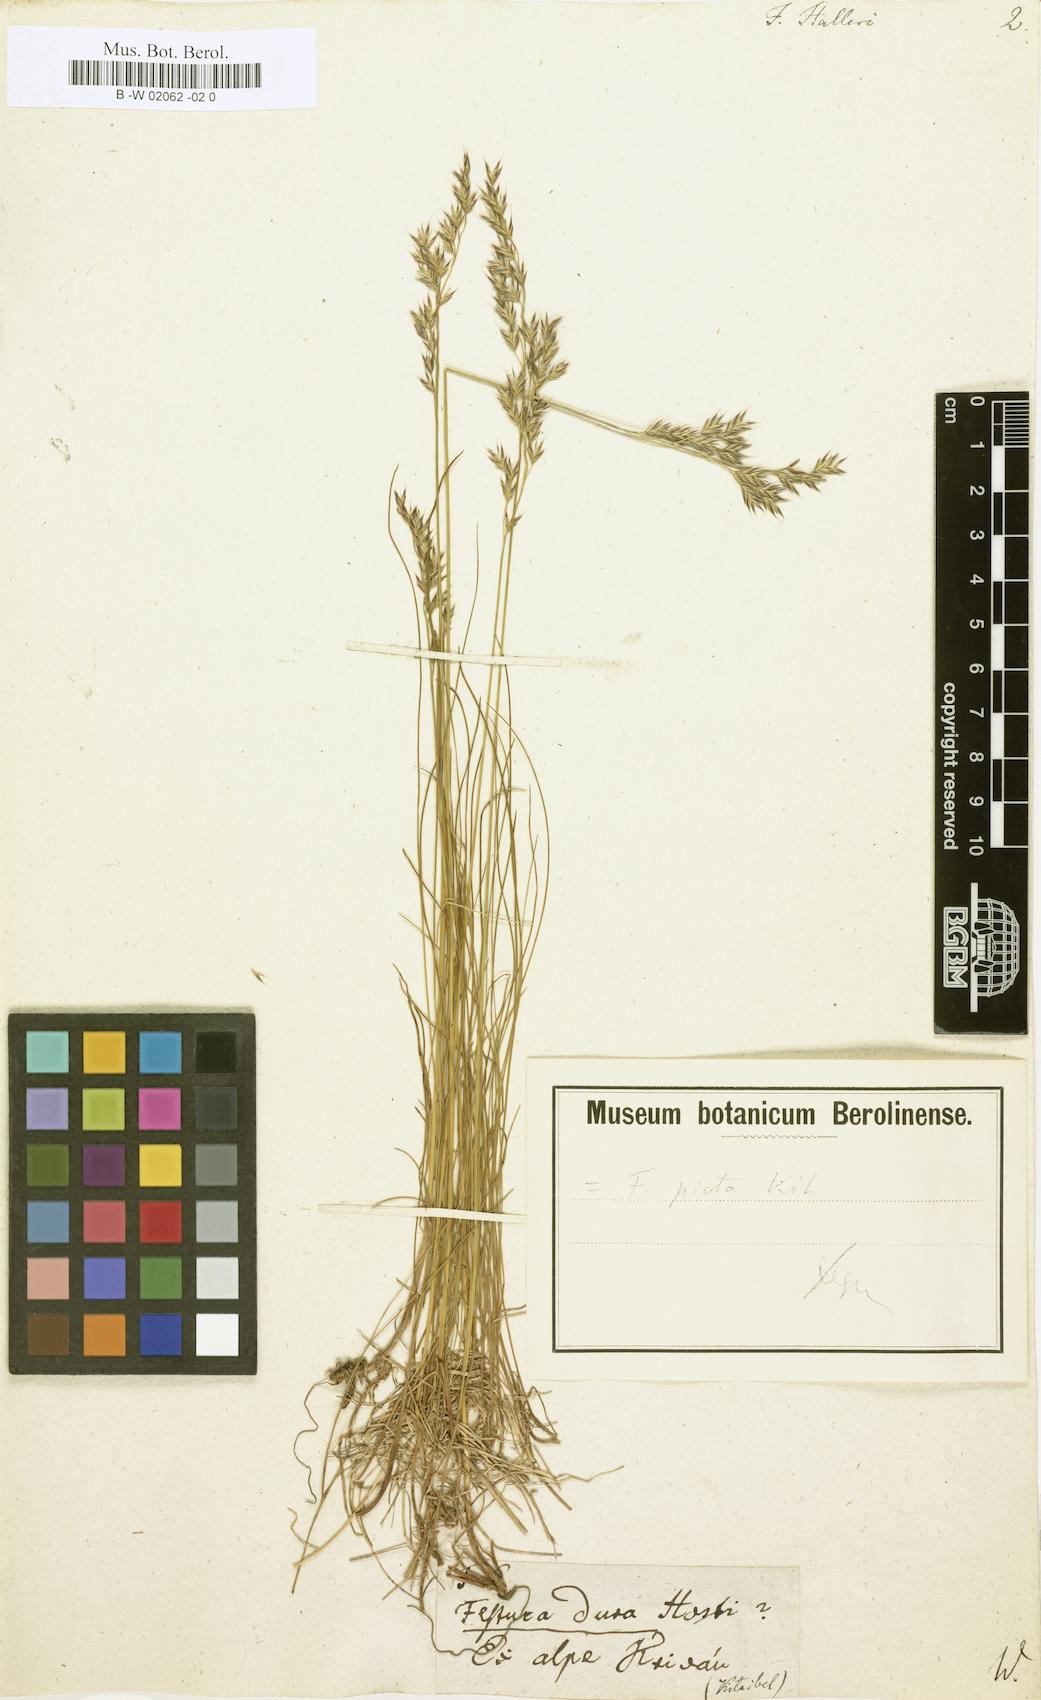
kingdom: Plantae
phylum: Tracheophyta
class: Liliopsida
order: Poales
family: Poaceae
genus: Festuca
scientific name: Festuca halleri
